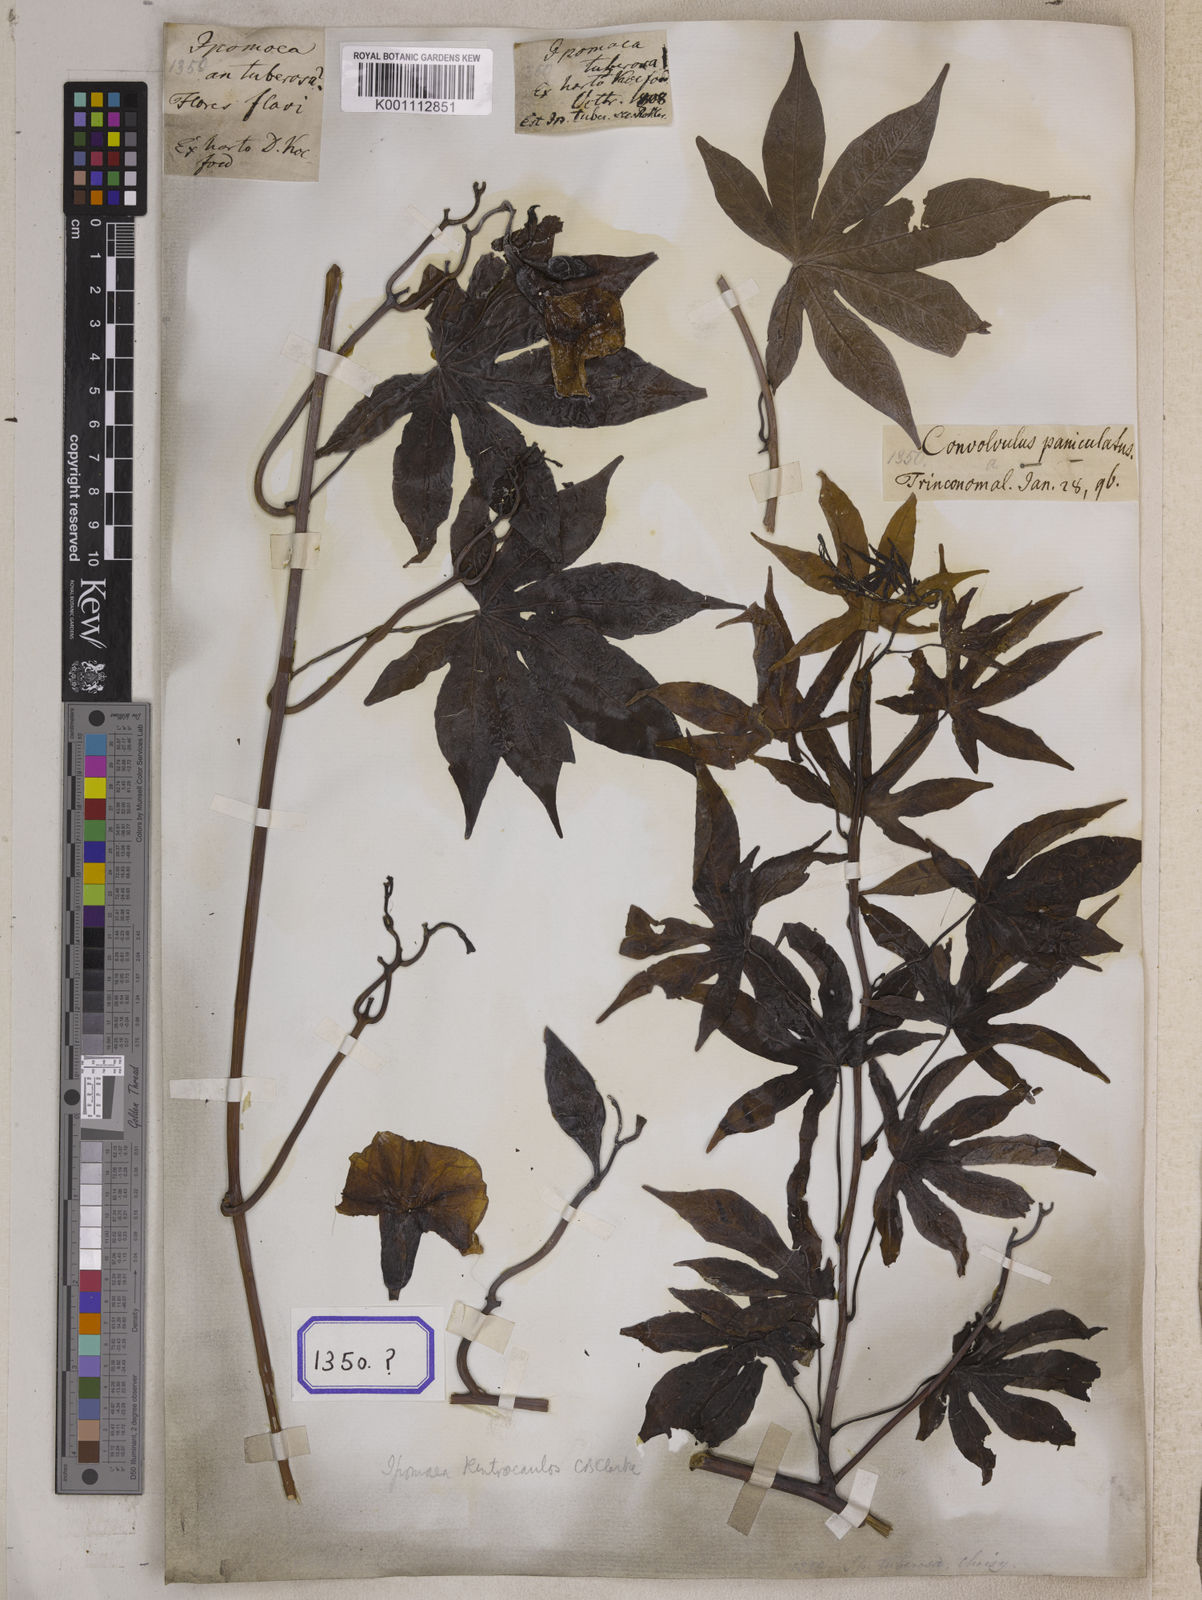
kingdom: Plantae
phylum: Tracheophyta
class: Magnoliopsida
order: Solanales
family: Convolvulaceae
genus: Ipomoea
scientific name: Ipomoea mauritiana
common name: Mauritanian convolvulus
